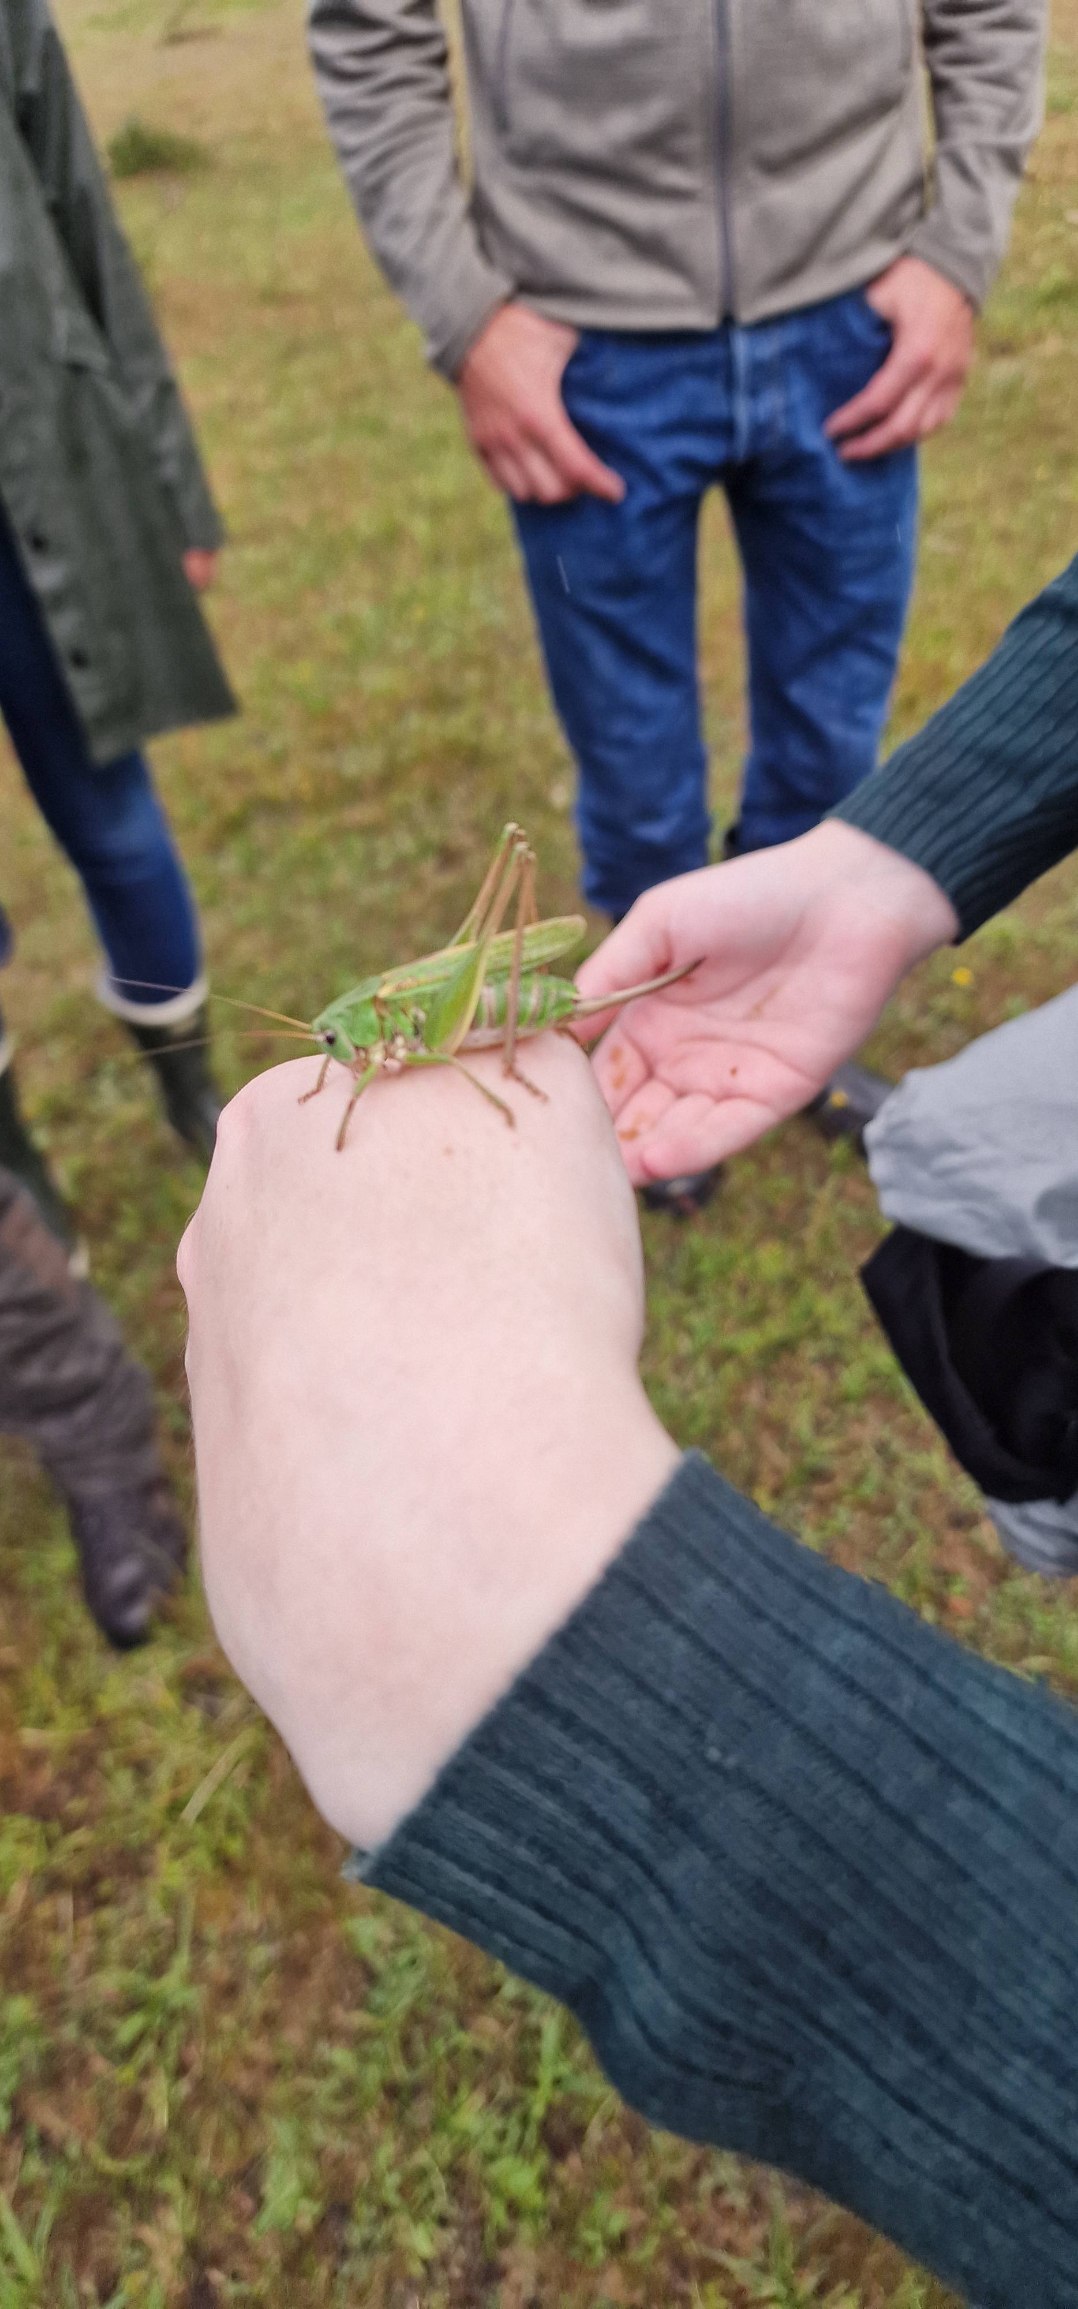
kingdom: Animalia
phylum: Arthropoda
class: Insecta
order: Orthoptera
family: Tettigoniidae
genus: Decticus
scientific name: Decticus verrucivorus
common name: Vortebider
